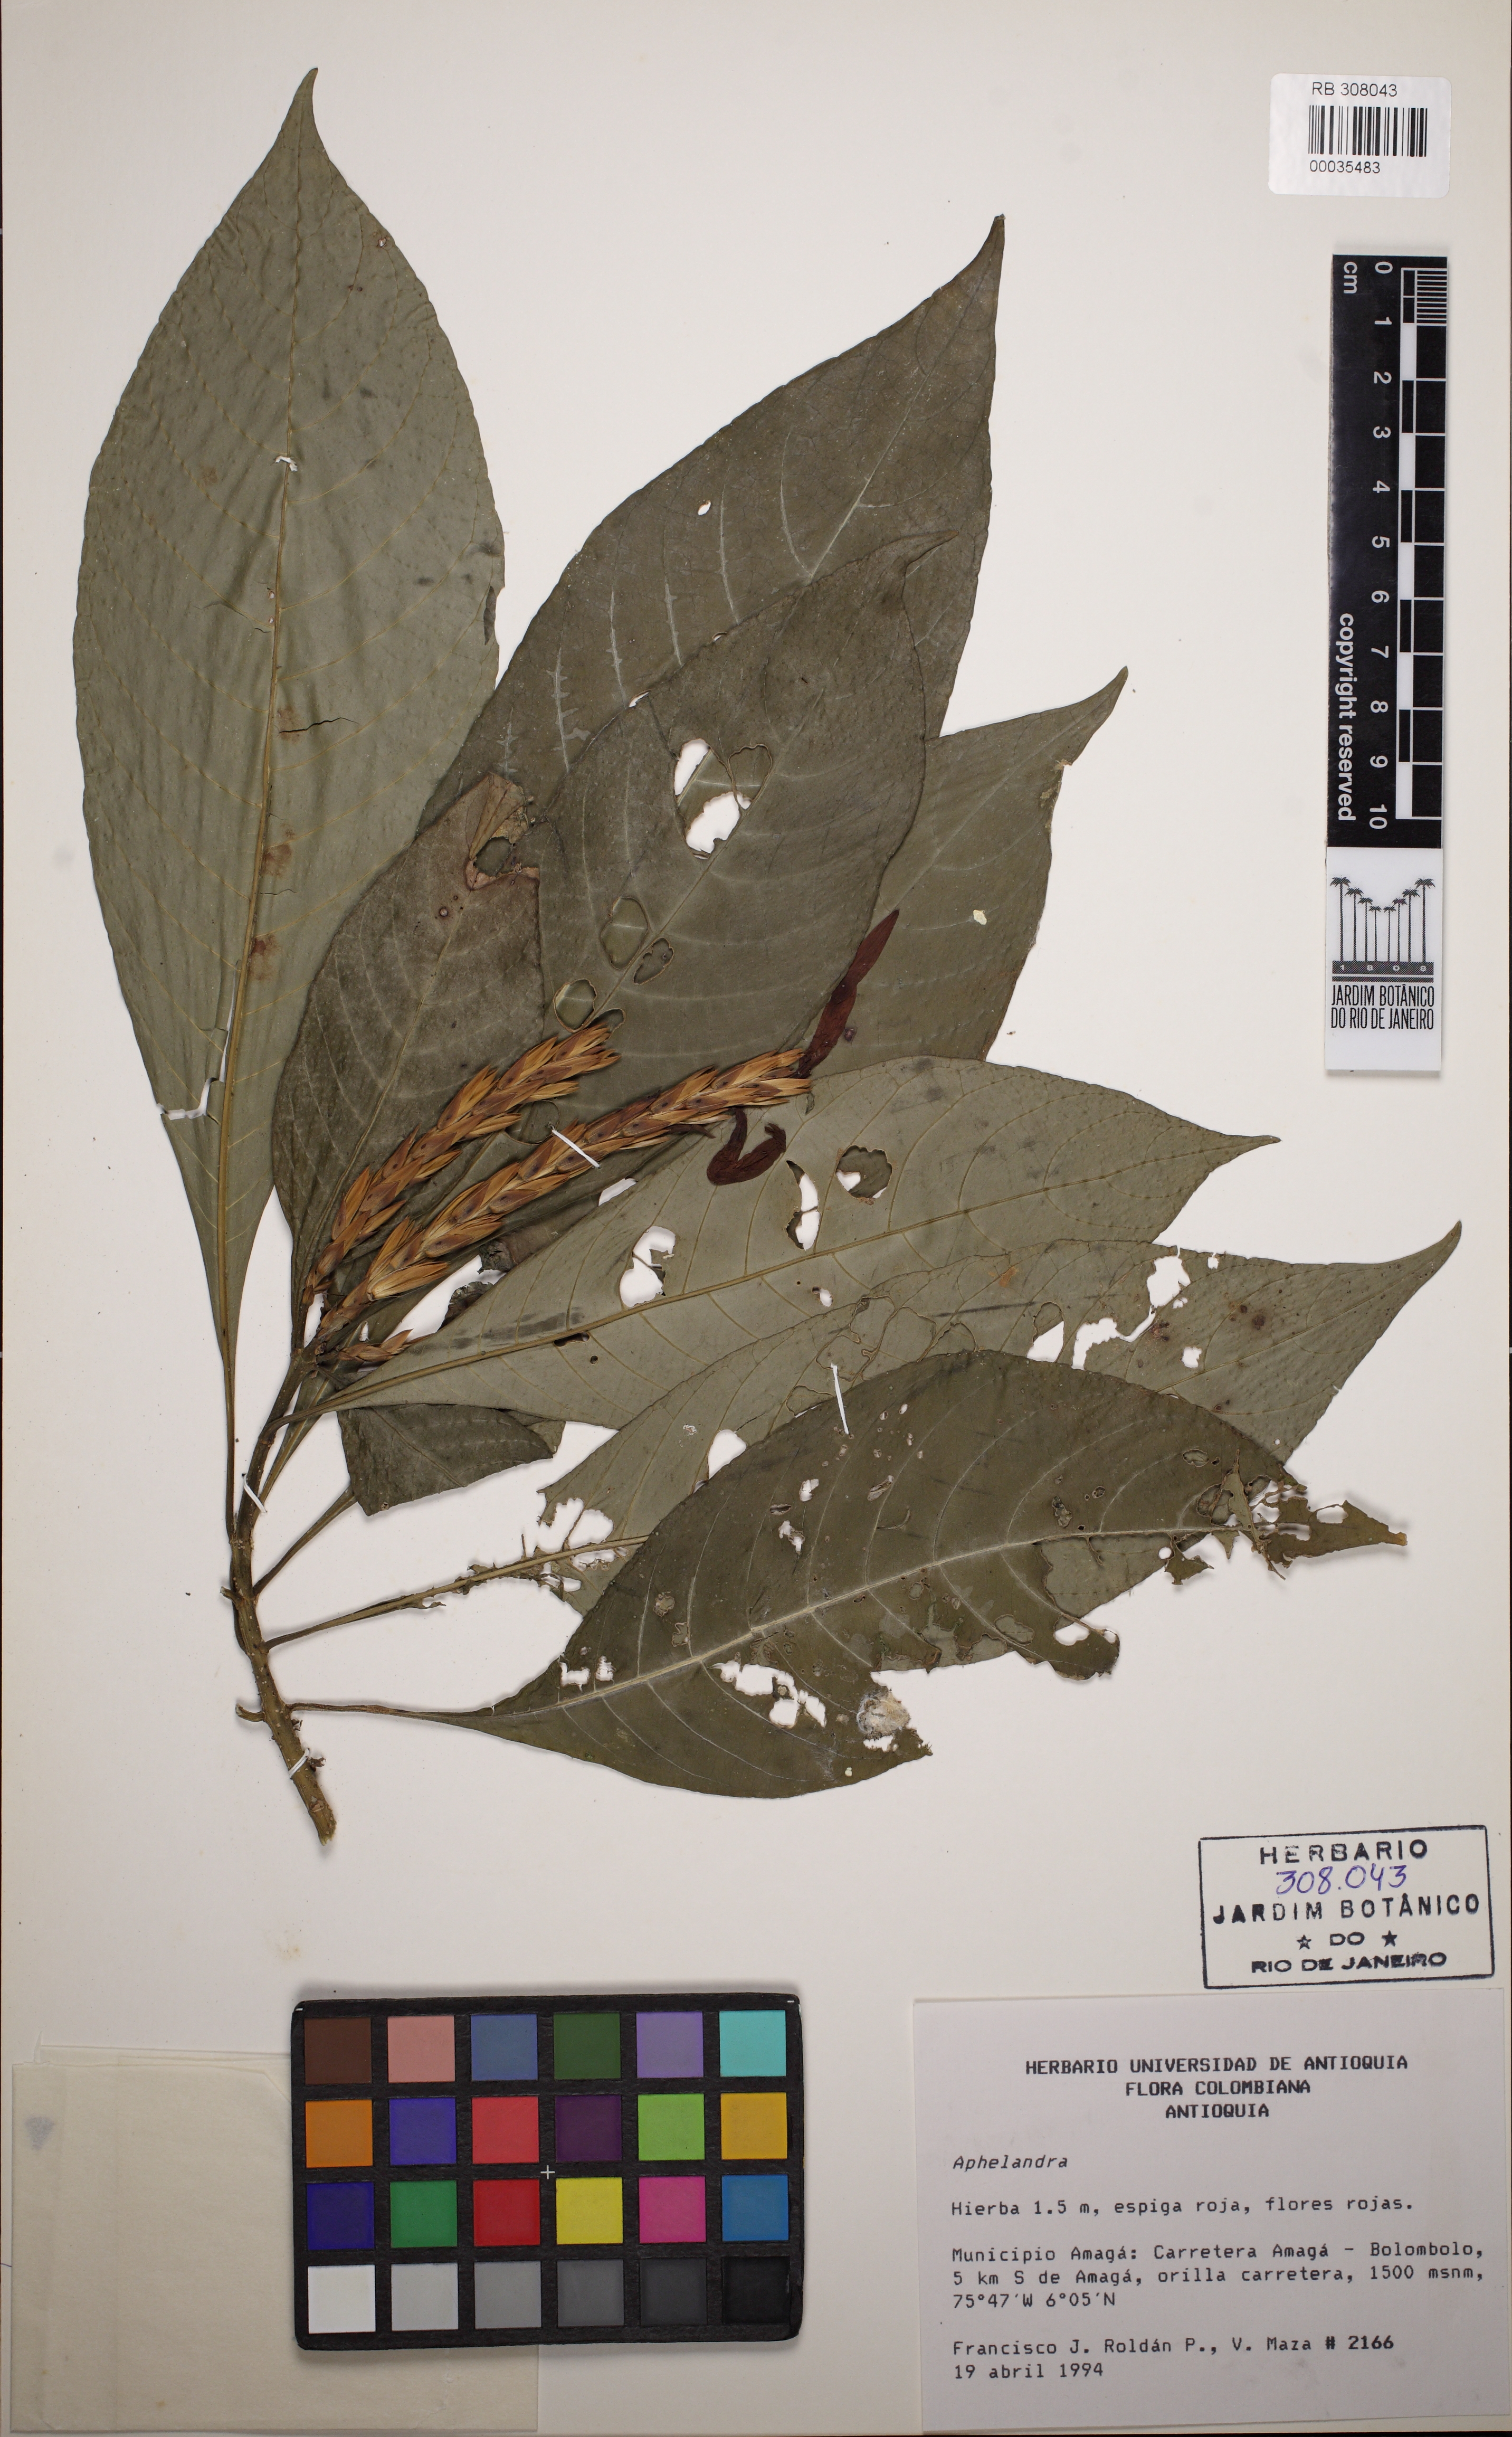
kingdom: Plantae
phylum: Tracheophyta
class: Magnoliopsida
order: Lamiales
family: Acanthaceae
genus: Aphelandra
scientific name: Aphelandra
